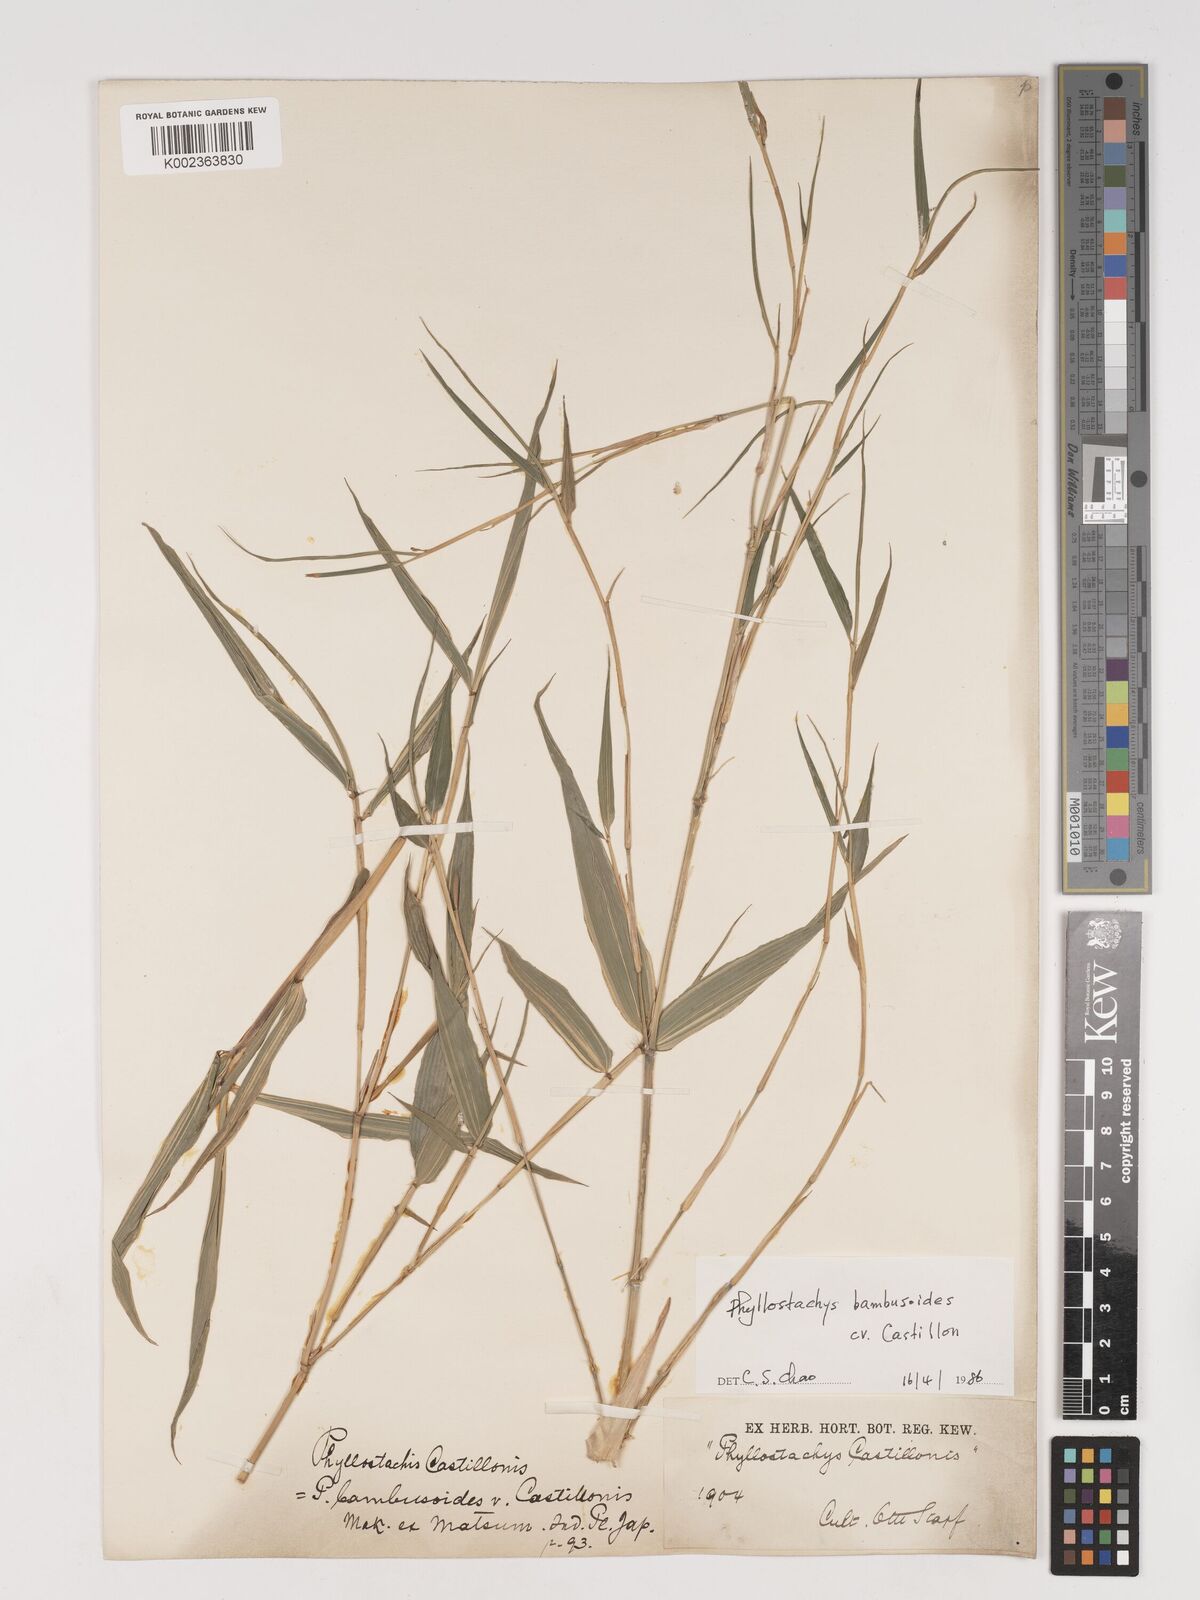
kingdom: Plantae
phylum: Tracheophyta
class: Liliopsida
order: Poales
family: Poaceae
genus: Phyllostachys
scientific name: Phyllostachys reticulata
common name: Bamboo
